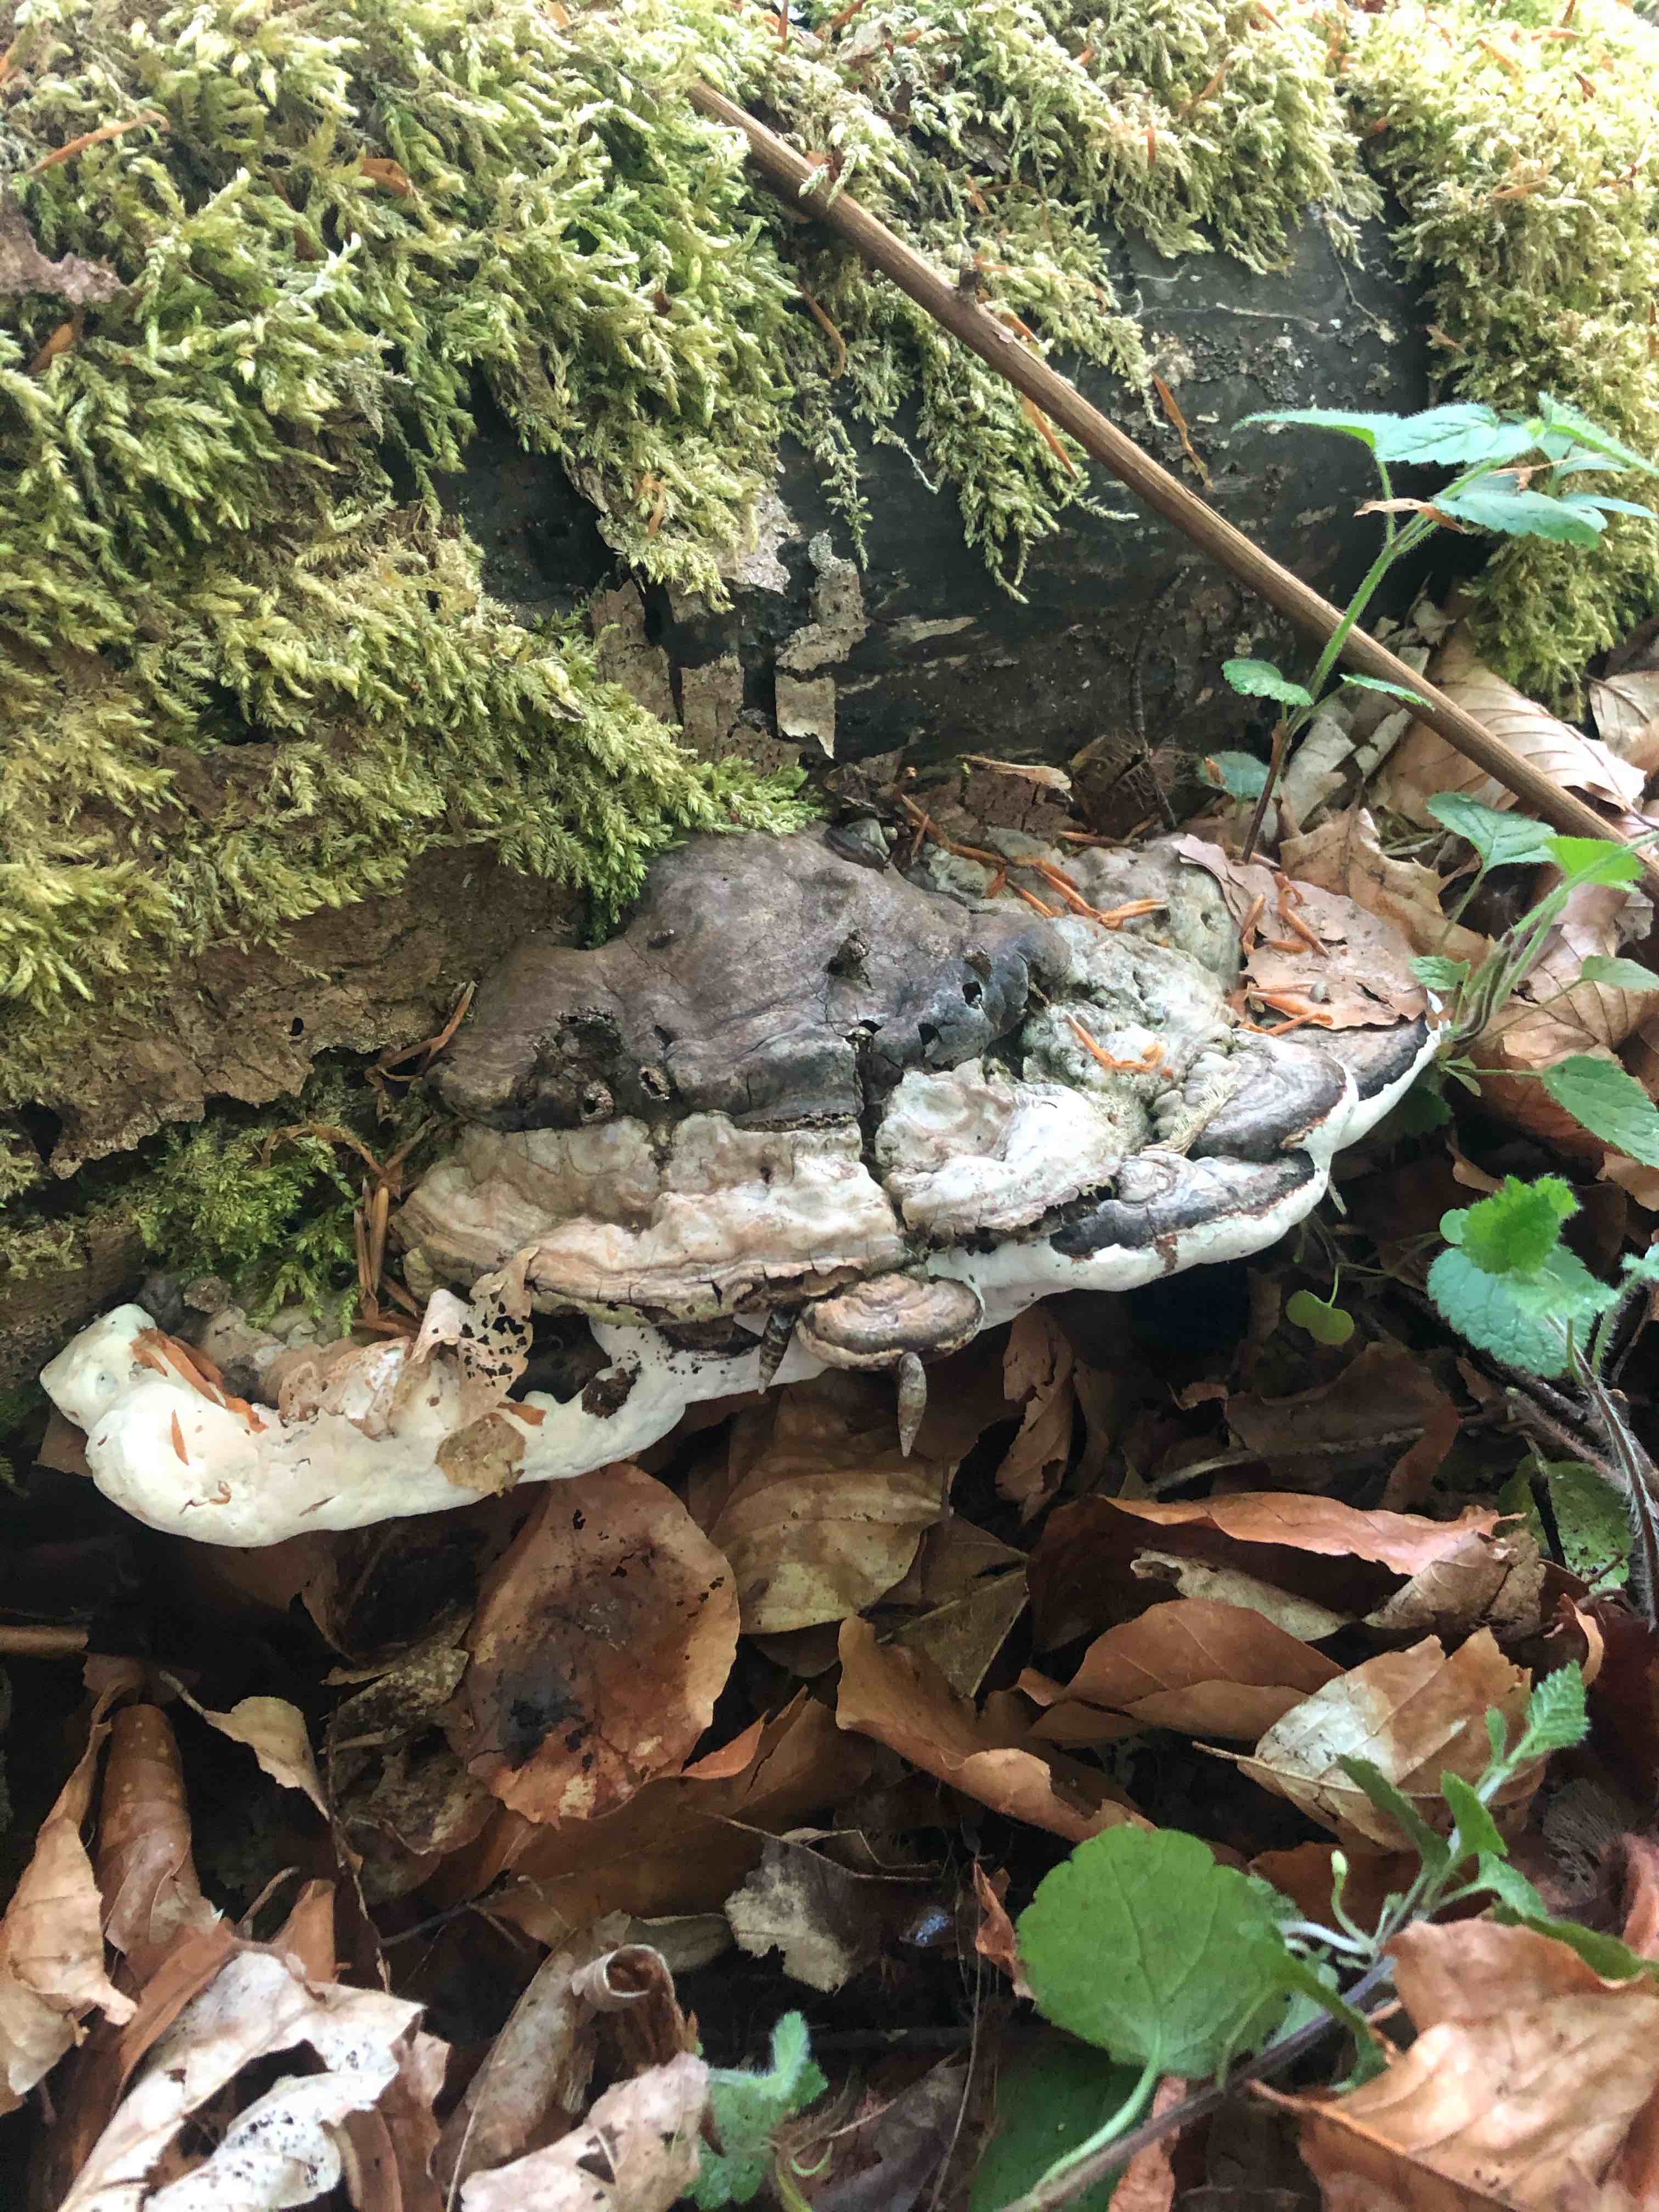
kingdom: Fungi
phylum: Basidiomycota
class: Agaricomycetes
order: Polyporales
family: Polyporaceae
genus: Ganoderma
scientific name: Ganoderma applanatum
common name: flad lakporesvamp
